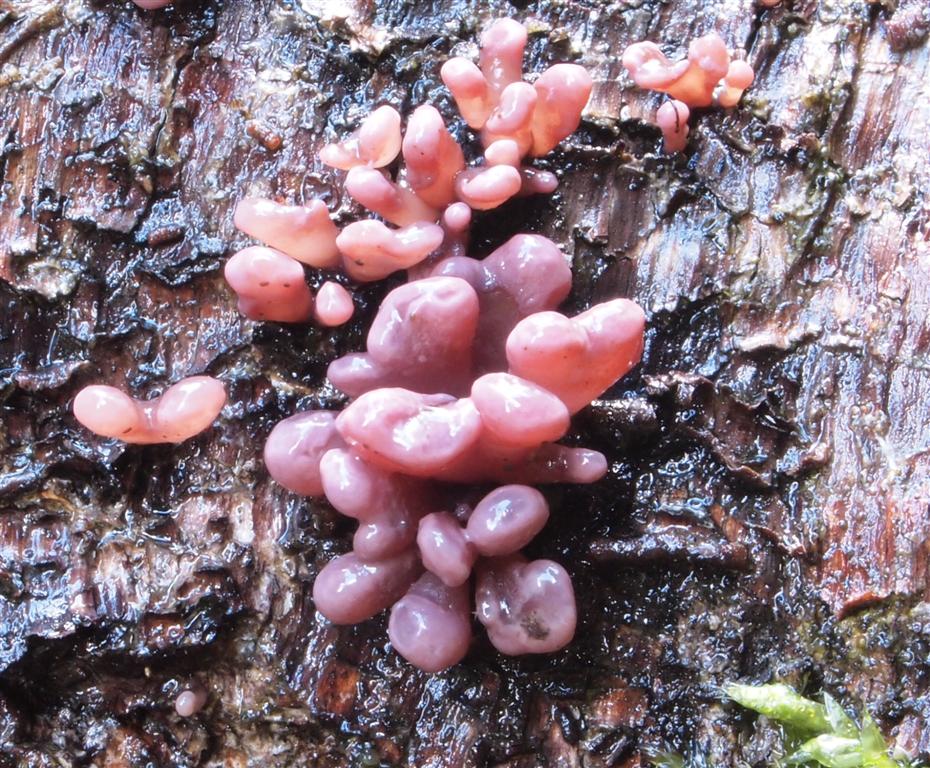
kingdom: Fungi
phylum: Ascomycota
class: Leotiomycetes
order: Helotiales
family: Gelatinodiscaceae
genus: Ascocoryne
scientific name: Ascocoryne sarcoides
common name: rødlilla sejskive
